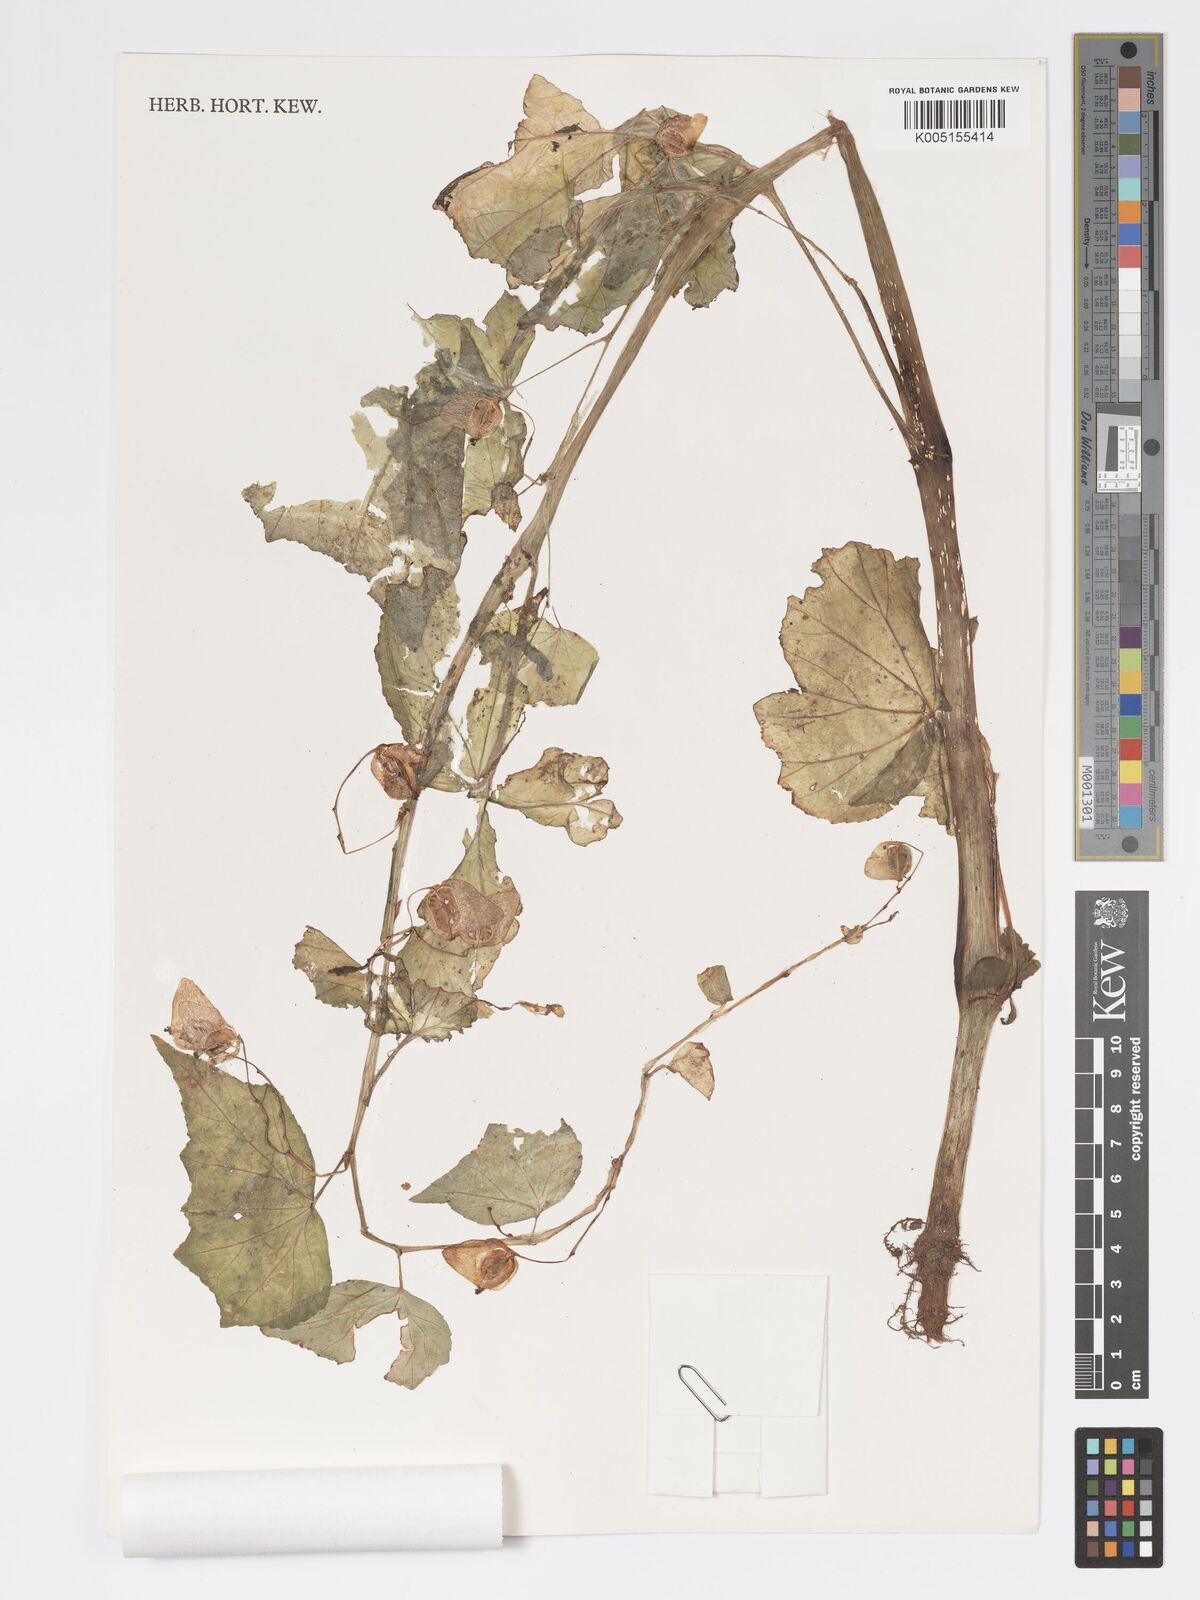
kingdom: Plantae
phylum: Tracheophyta
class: Magnoliopsida
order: Cucurbitales
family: Begoniaceae
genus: Begonia
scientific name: Begonia princeae
